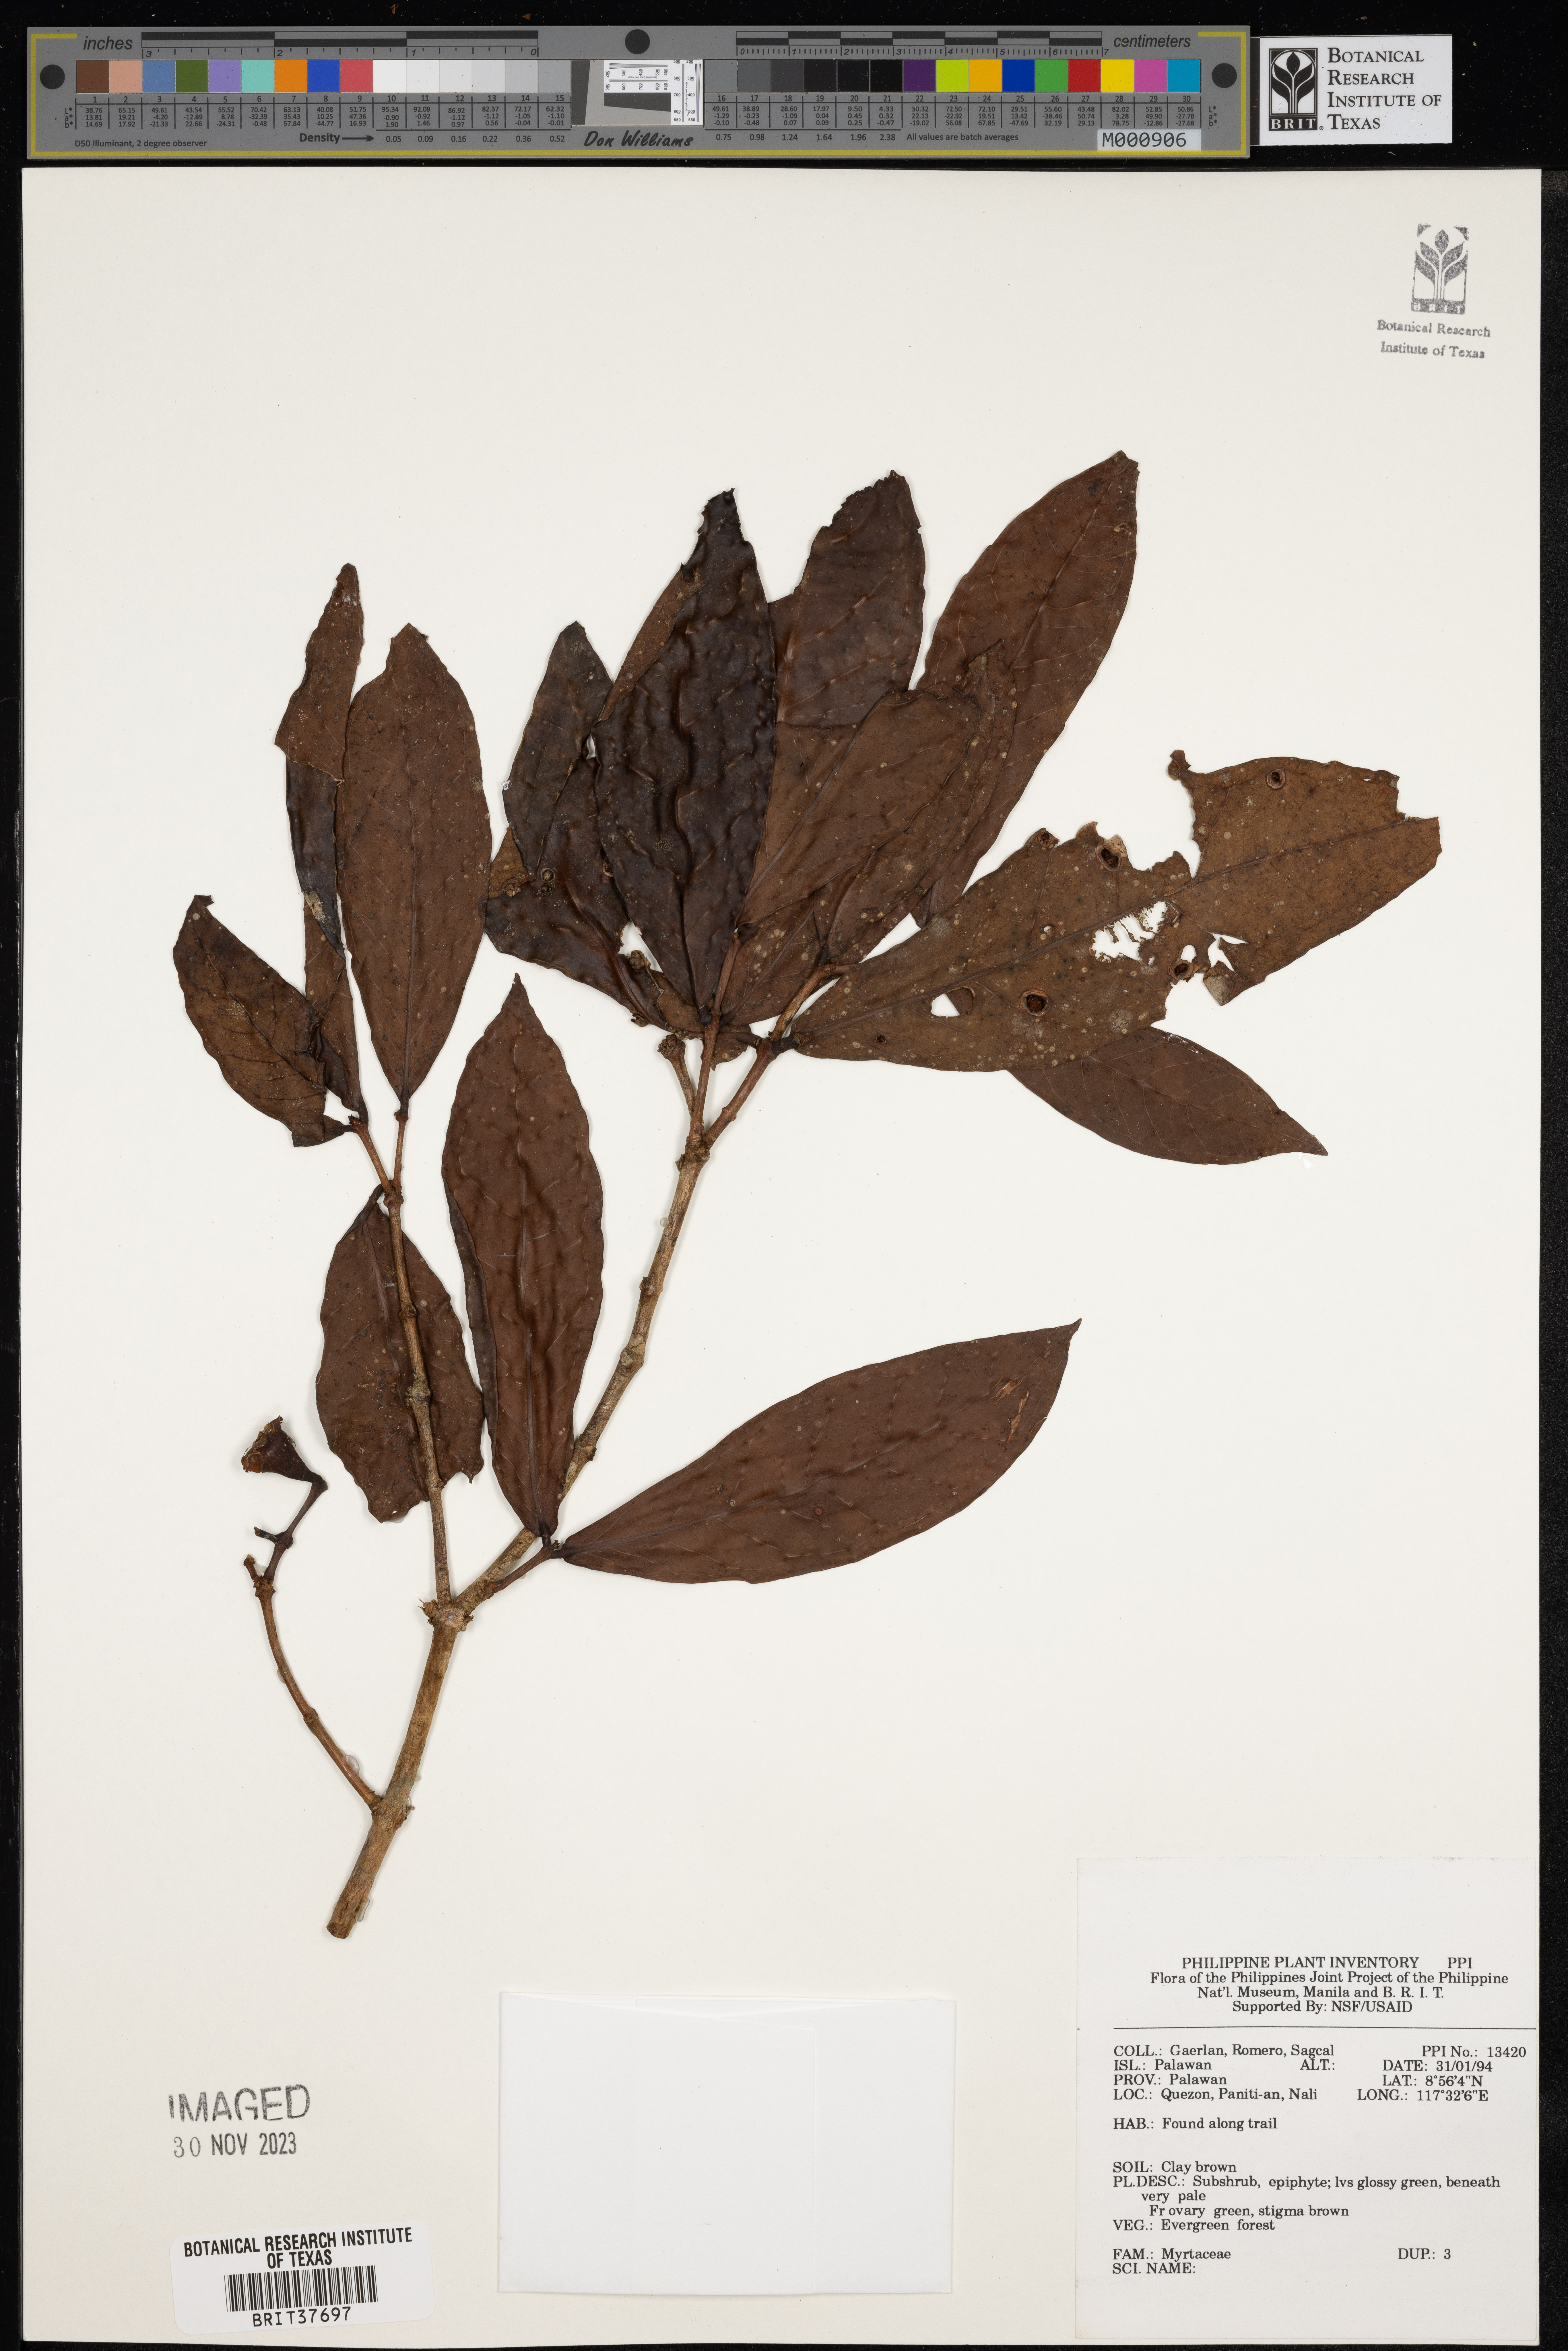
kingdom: Plantae
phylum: Tracheophyta
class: Magnoliopsida
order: Myrtales
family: Myrtaceae
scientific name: Myrtaceae
